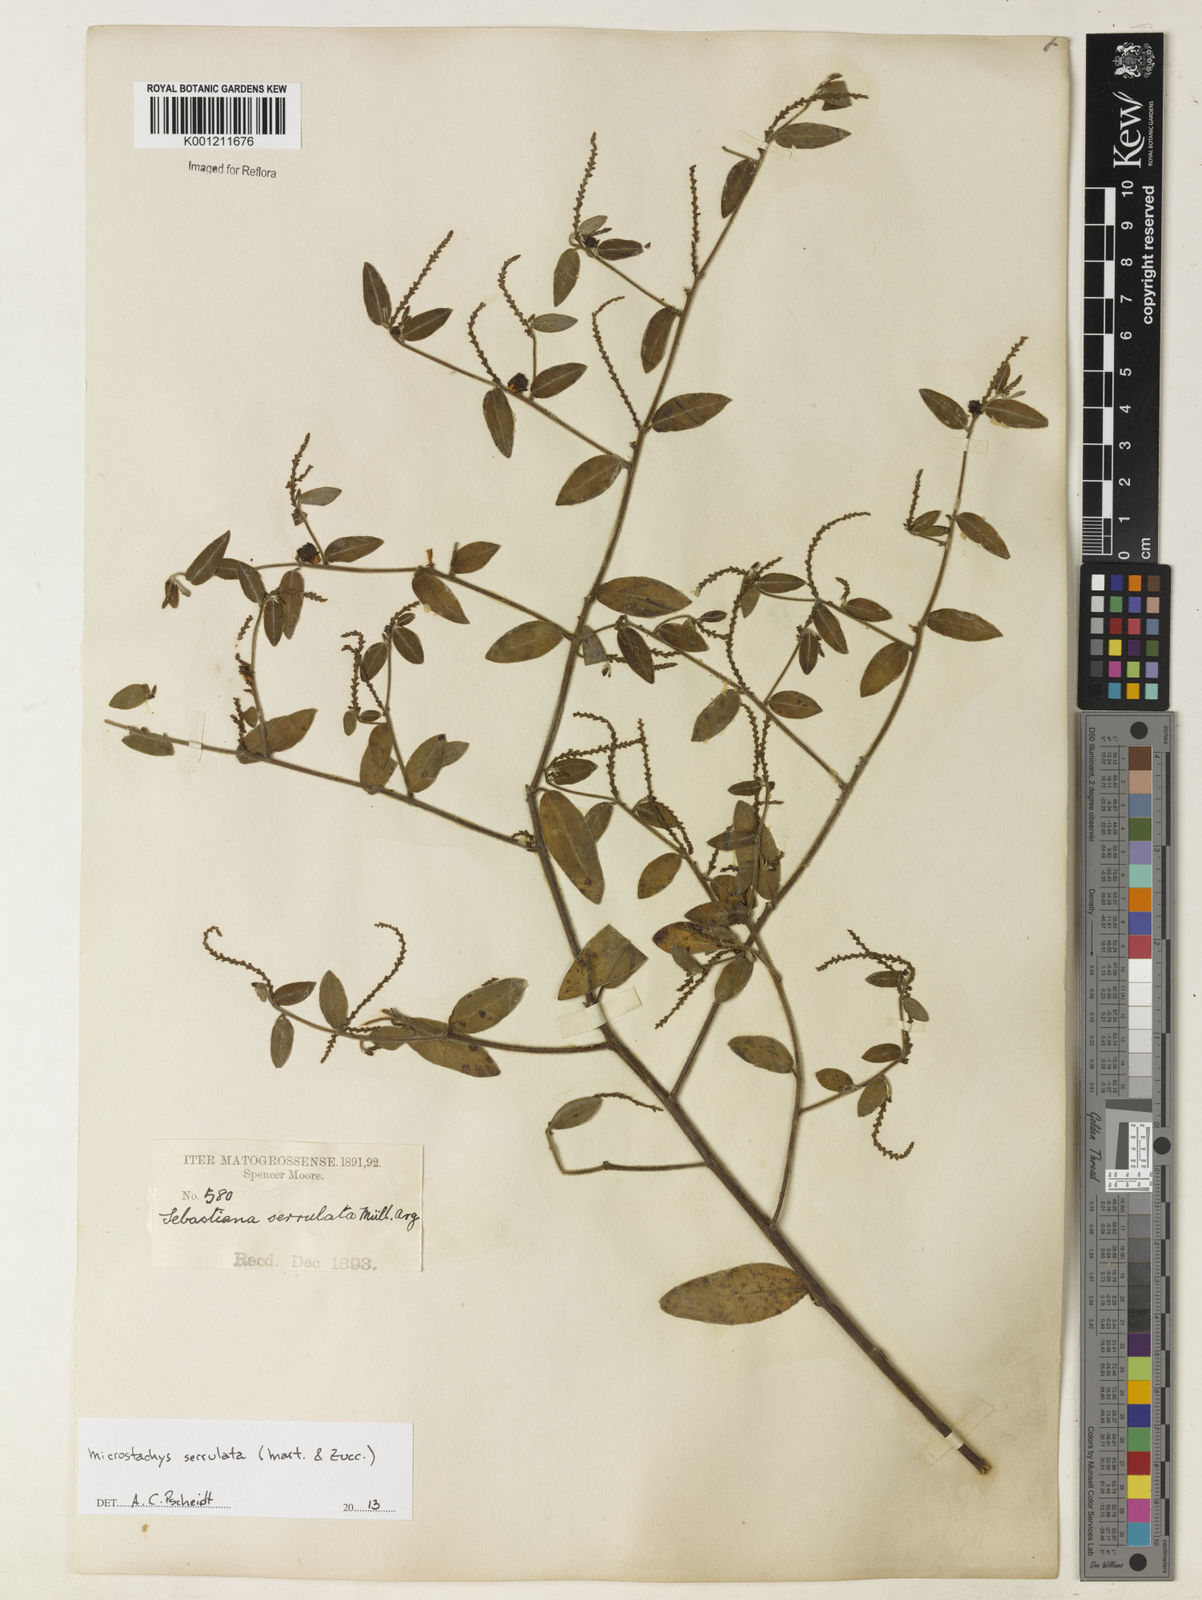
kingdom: Plantae
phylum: Tracheophyta
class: Magnoliopsida
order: Malpighiales
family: Euphorbiaceae
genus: Microstachys
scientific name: Microstachys
